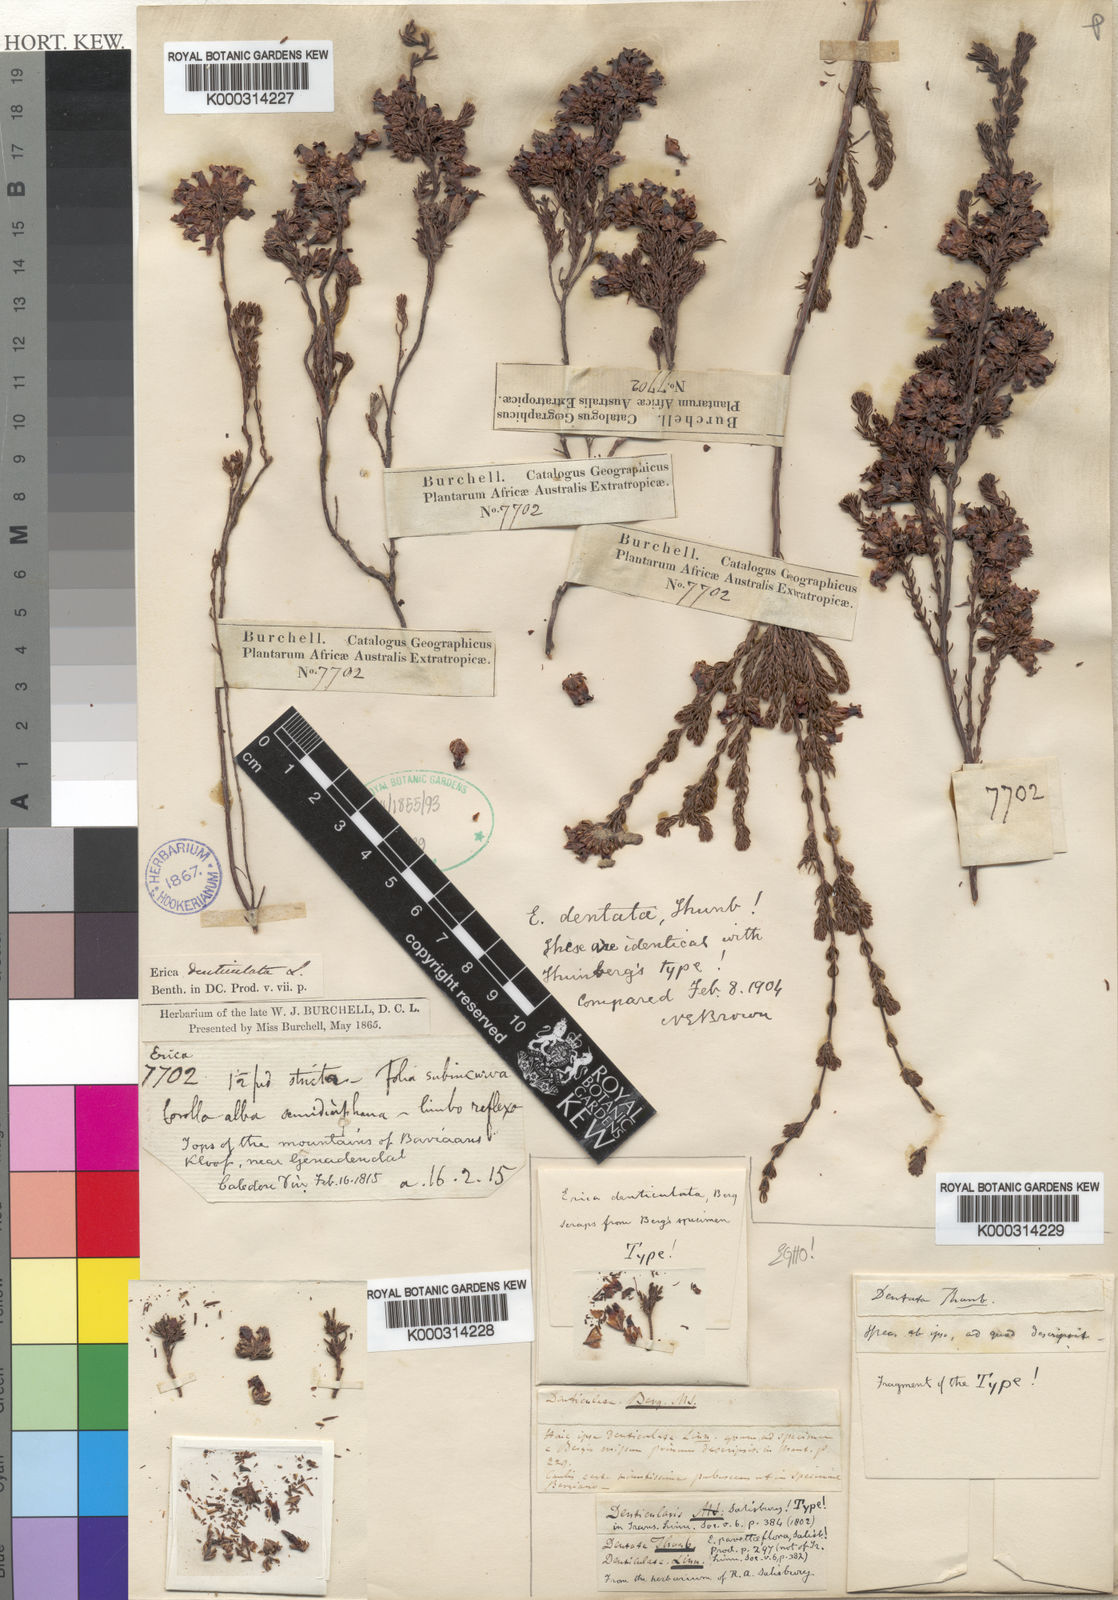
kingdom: Plantae
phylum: Tracheophyta
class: Magnoliopsida
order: Ericales
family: Ericaceae
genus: Erica
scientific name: Erica denticulata
